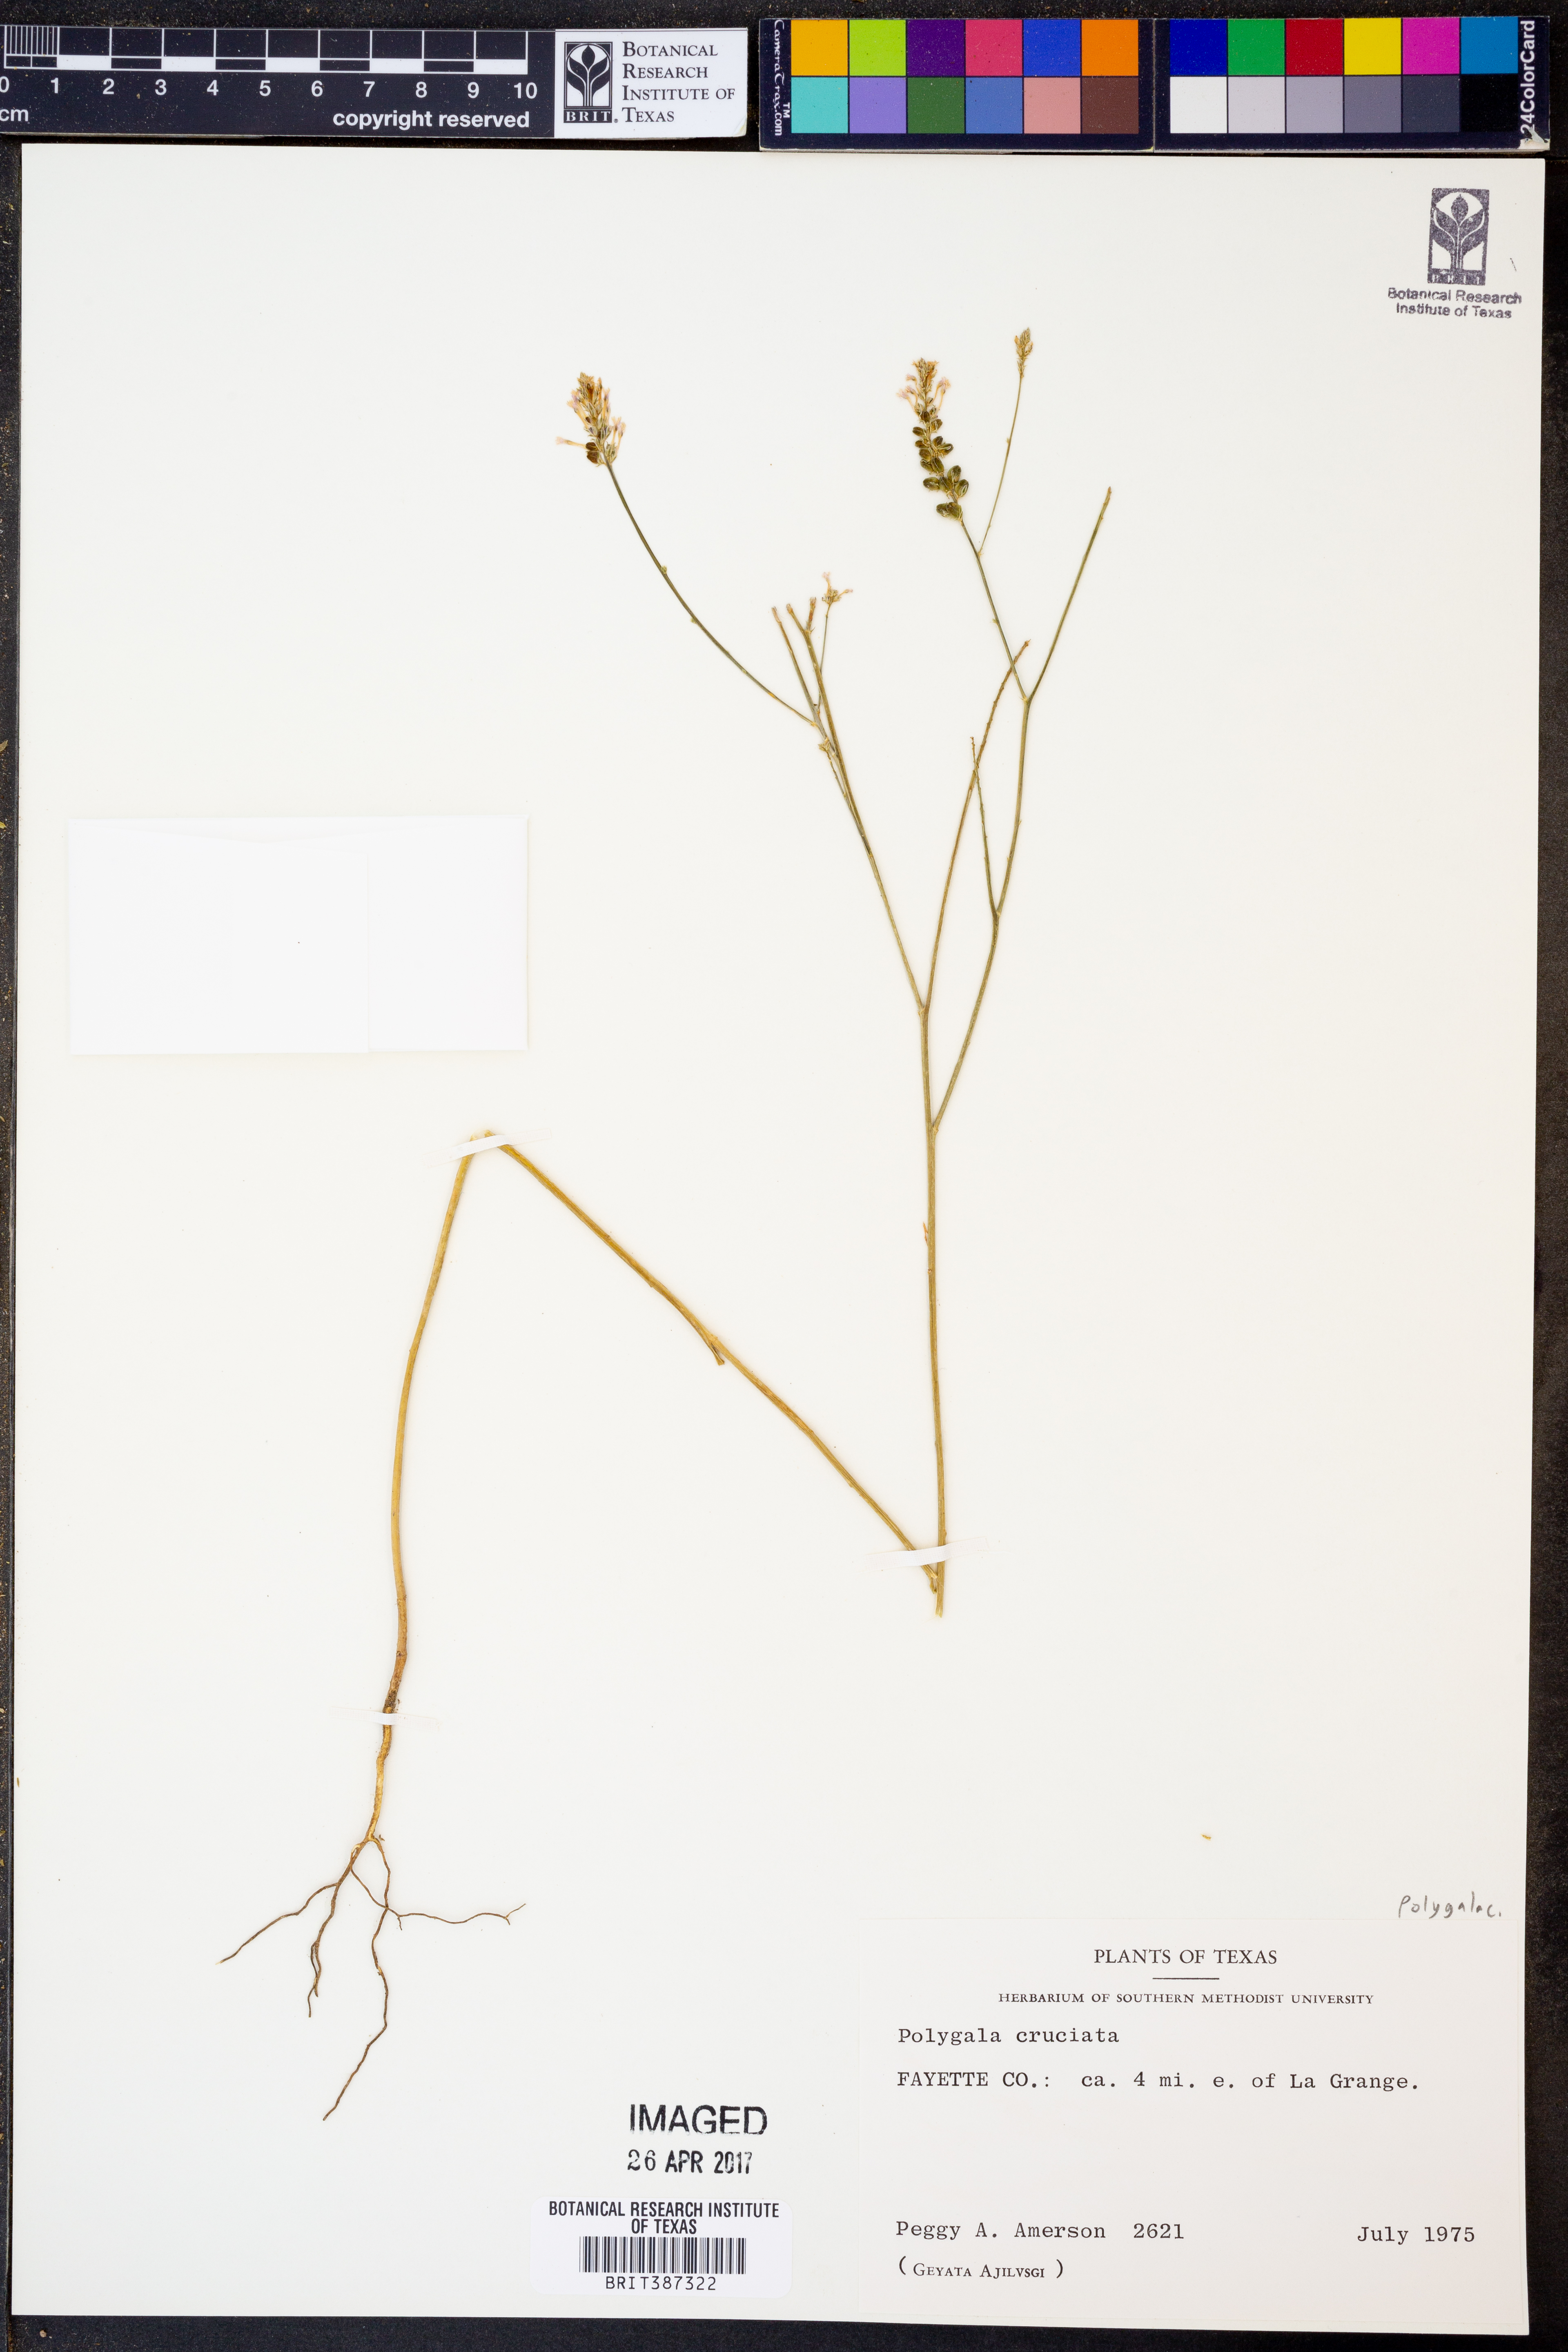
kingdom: Plantae
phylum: Tracheophyta
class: Magnoliopsida
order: Fabales
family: Polygalaceae
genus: Polygala
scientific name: Polygala cruciata
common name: Drumheads
